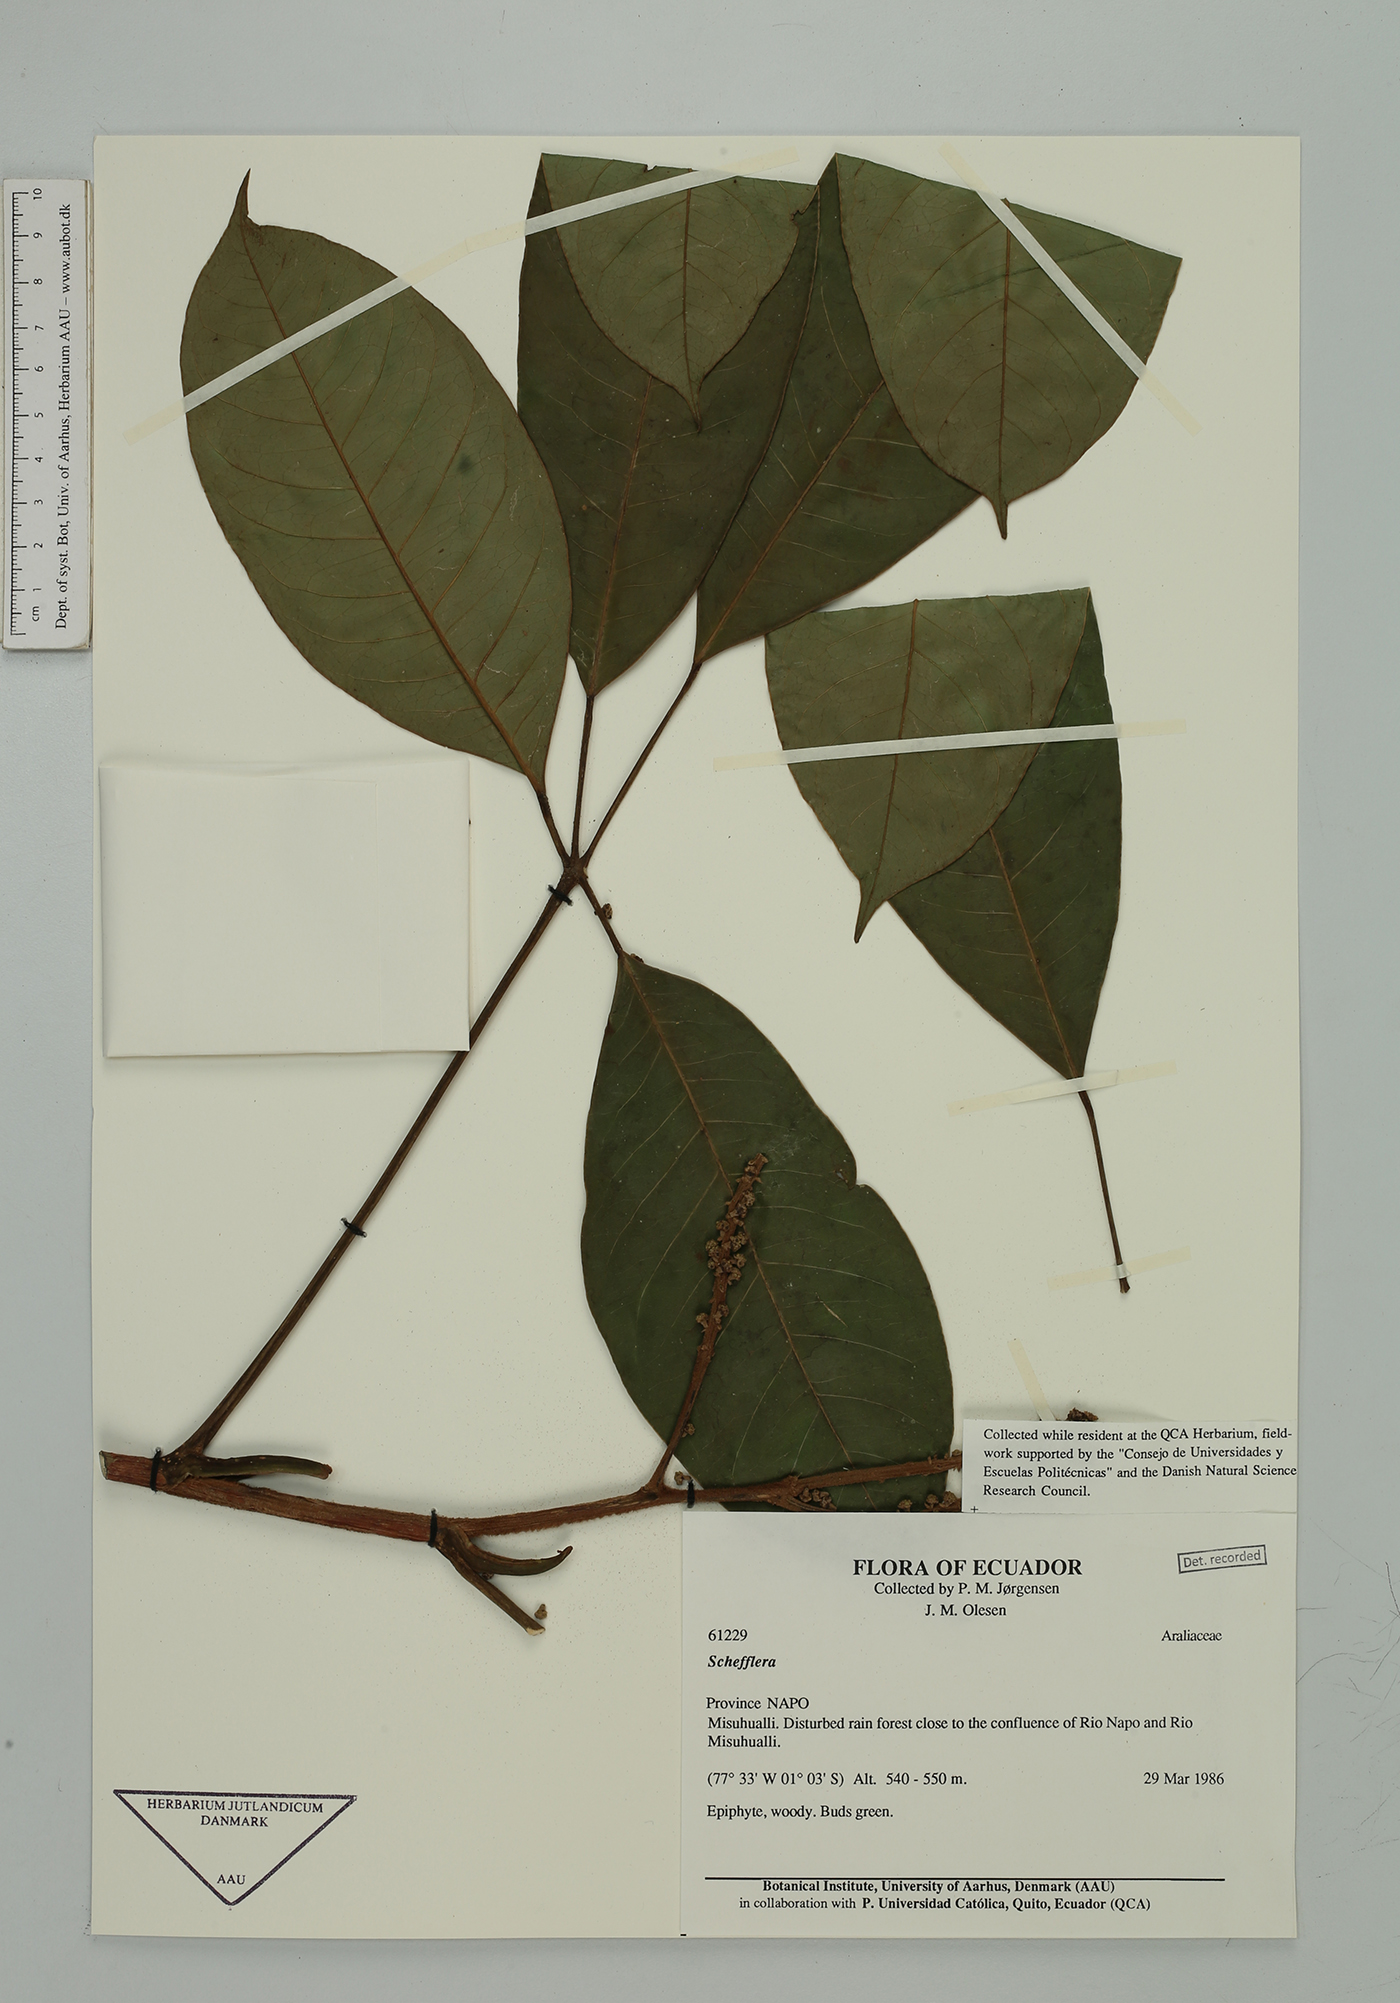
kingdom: Plantae
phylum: Tracheophyta
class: Magnoliopsida
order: Apiales
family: Araliaceae
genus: Sciodaphyllum
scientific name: Sciodaphyllum sprucei
